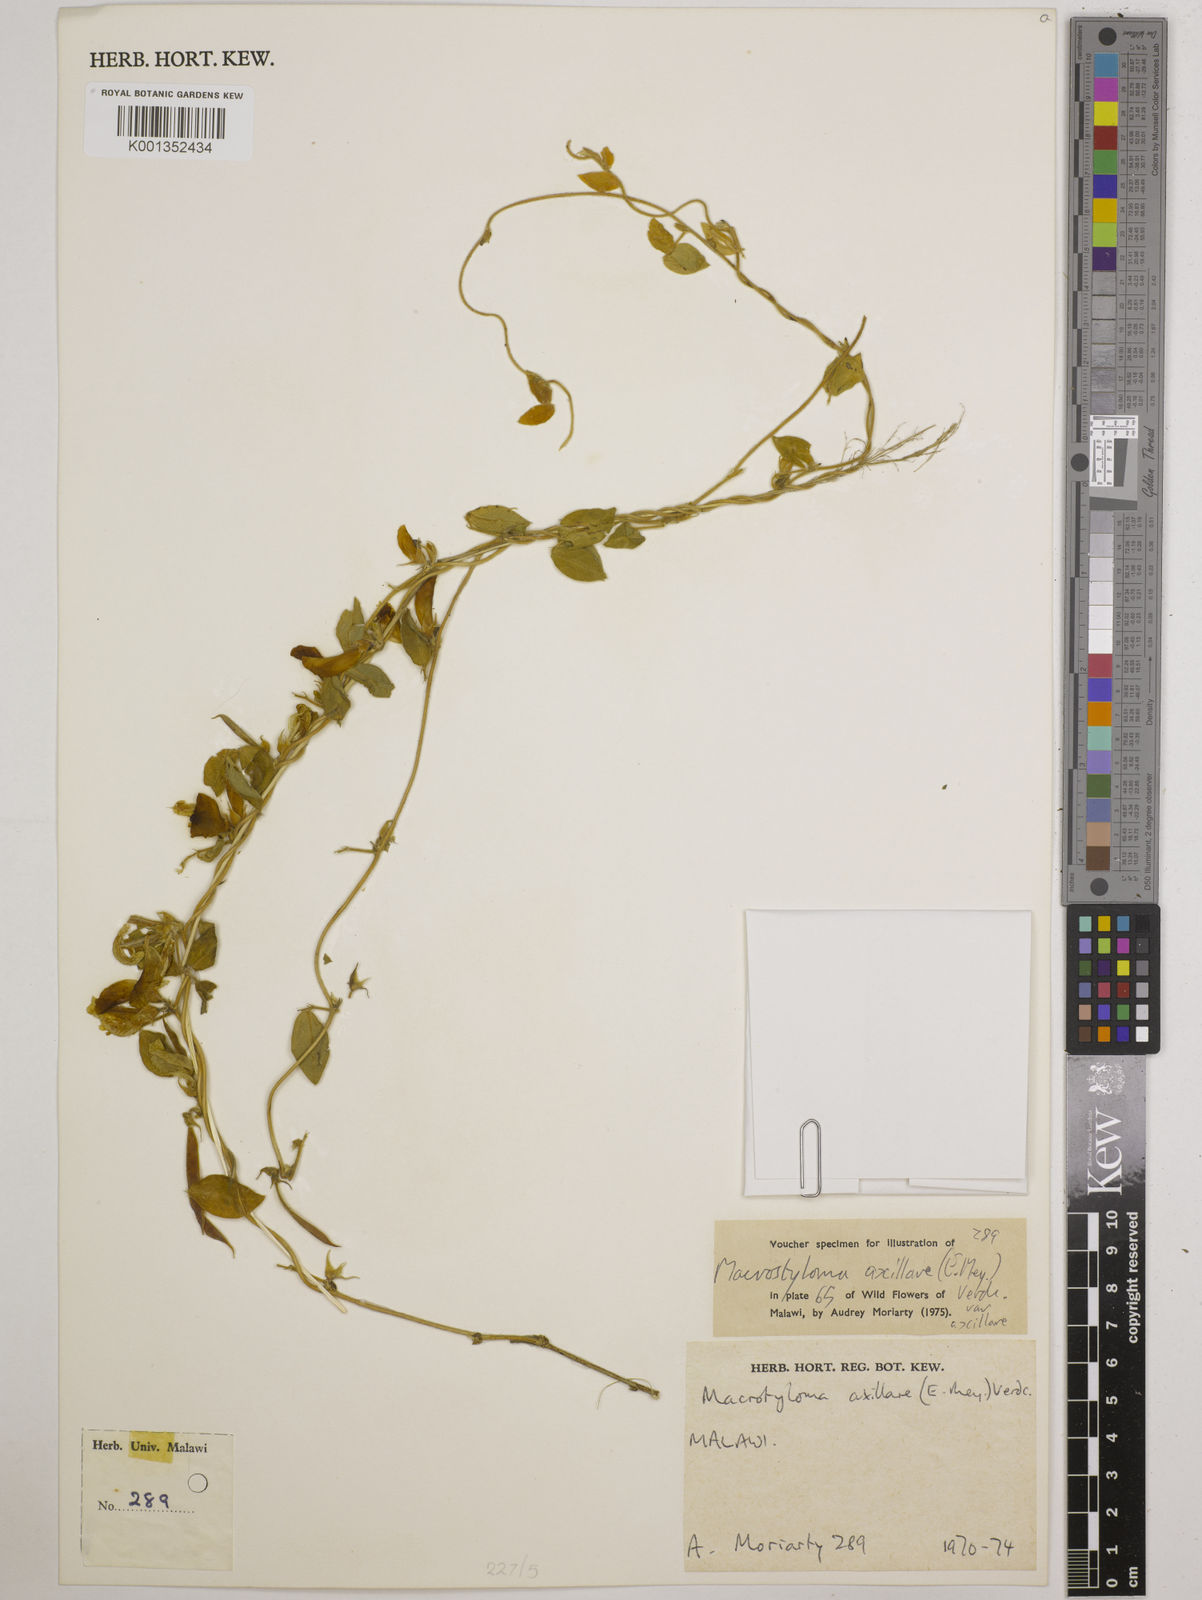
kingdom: Plantae
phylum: Tracheophyta
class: Magnoliopsida
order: Fabales
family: Fabaceae
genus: Macrotyloma
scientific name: Macrotyloma axillare
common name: Perennial horsegram
